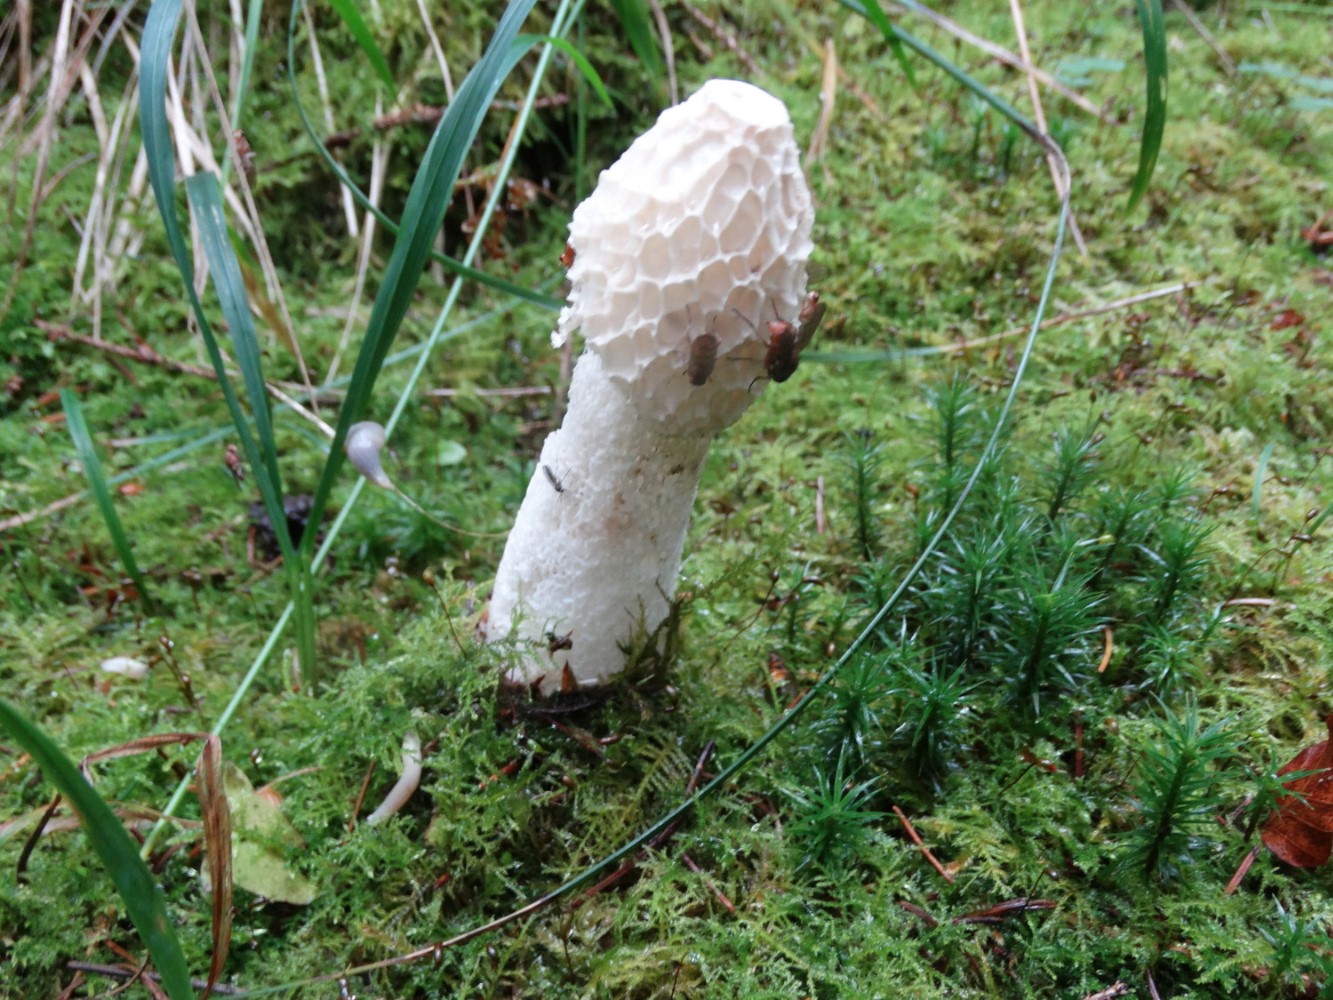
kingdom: Fungi
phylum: Basidiomycota
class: Agaricomycetes
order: Phallales
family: Phallaceae
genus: Phallus
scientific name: Phallus impudicus
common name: almindelig stinksvamp
